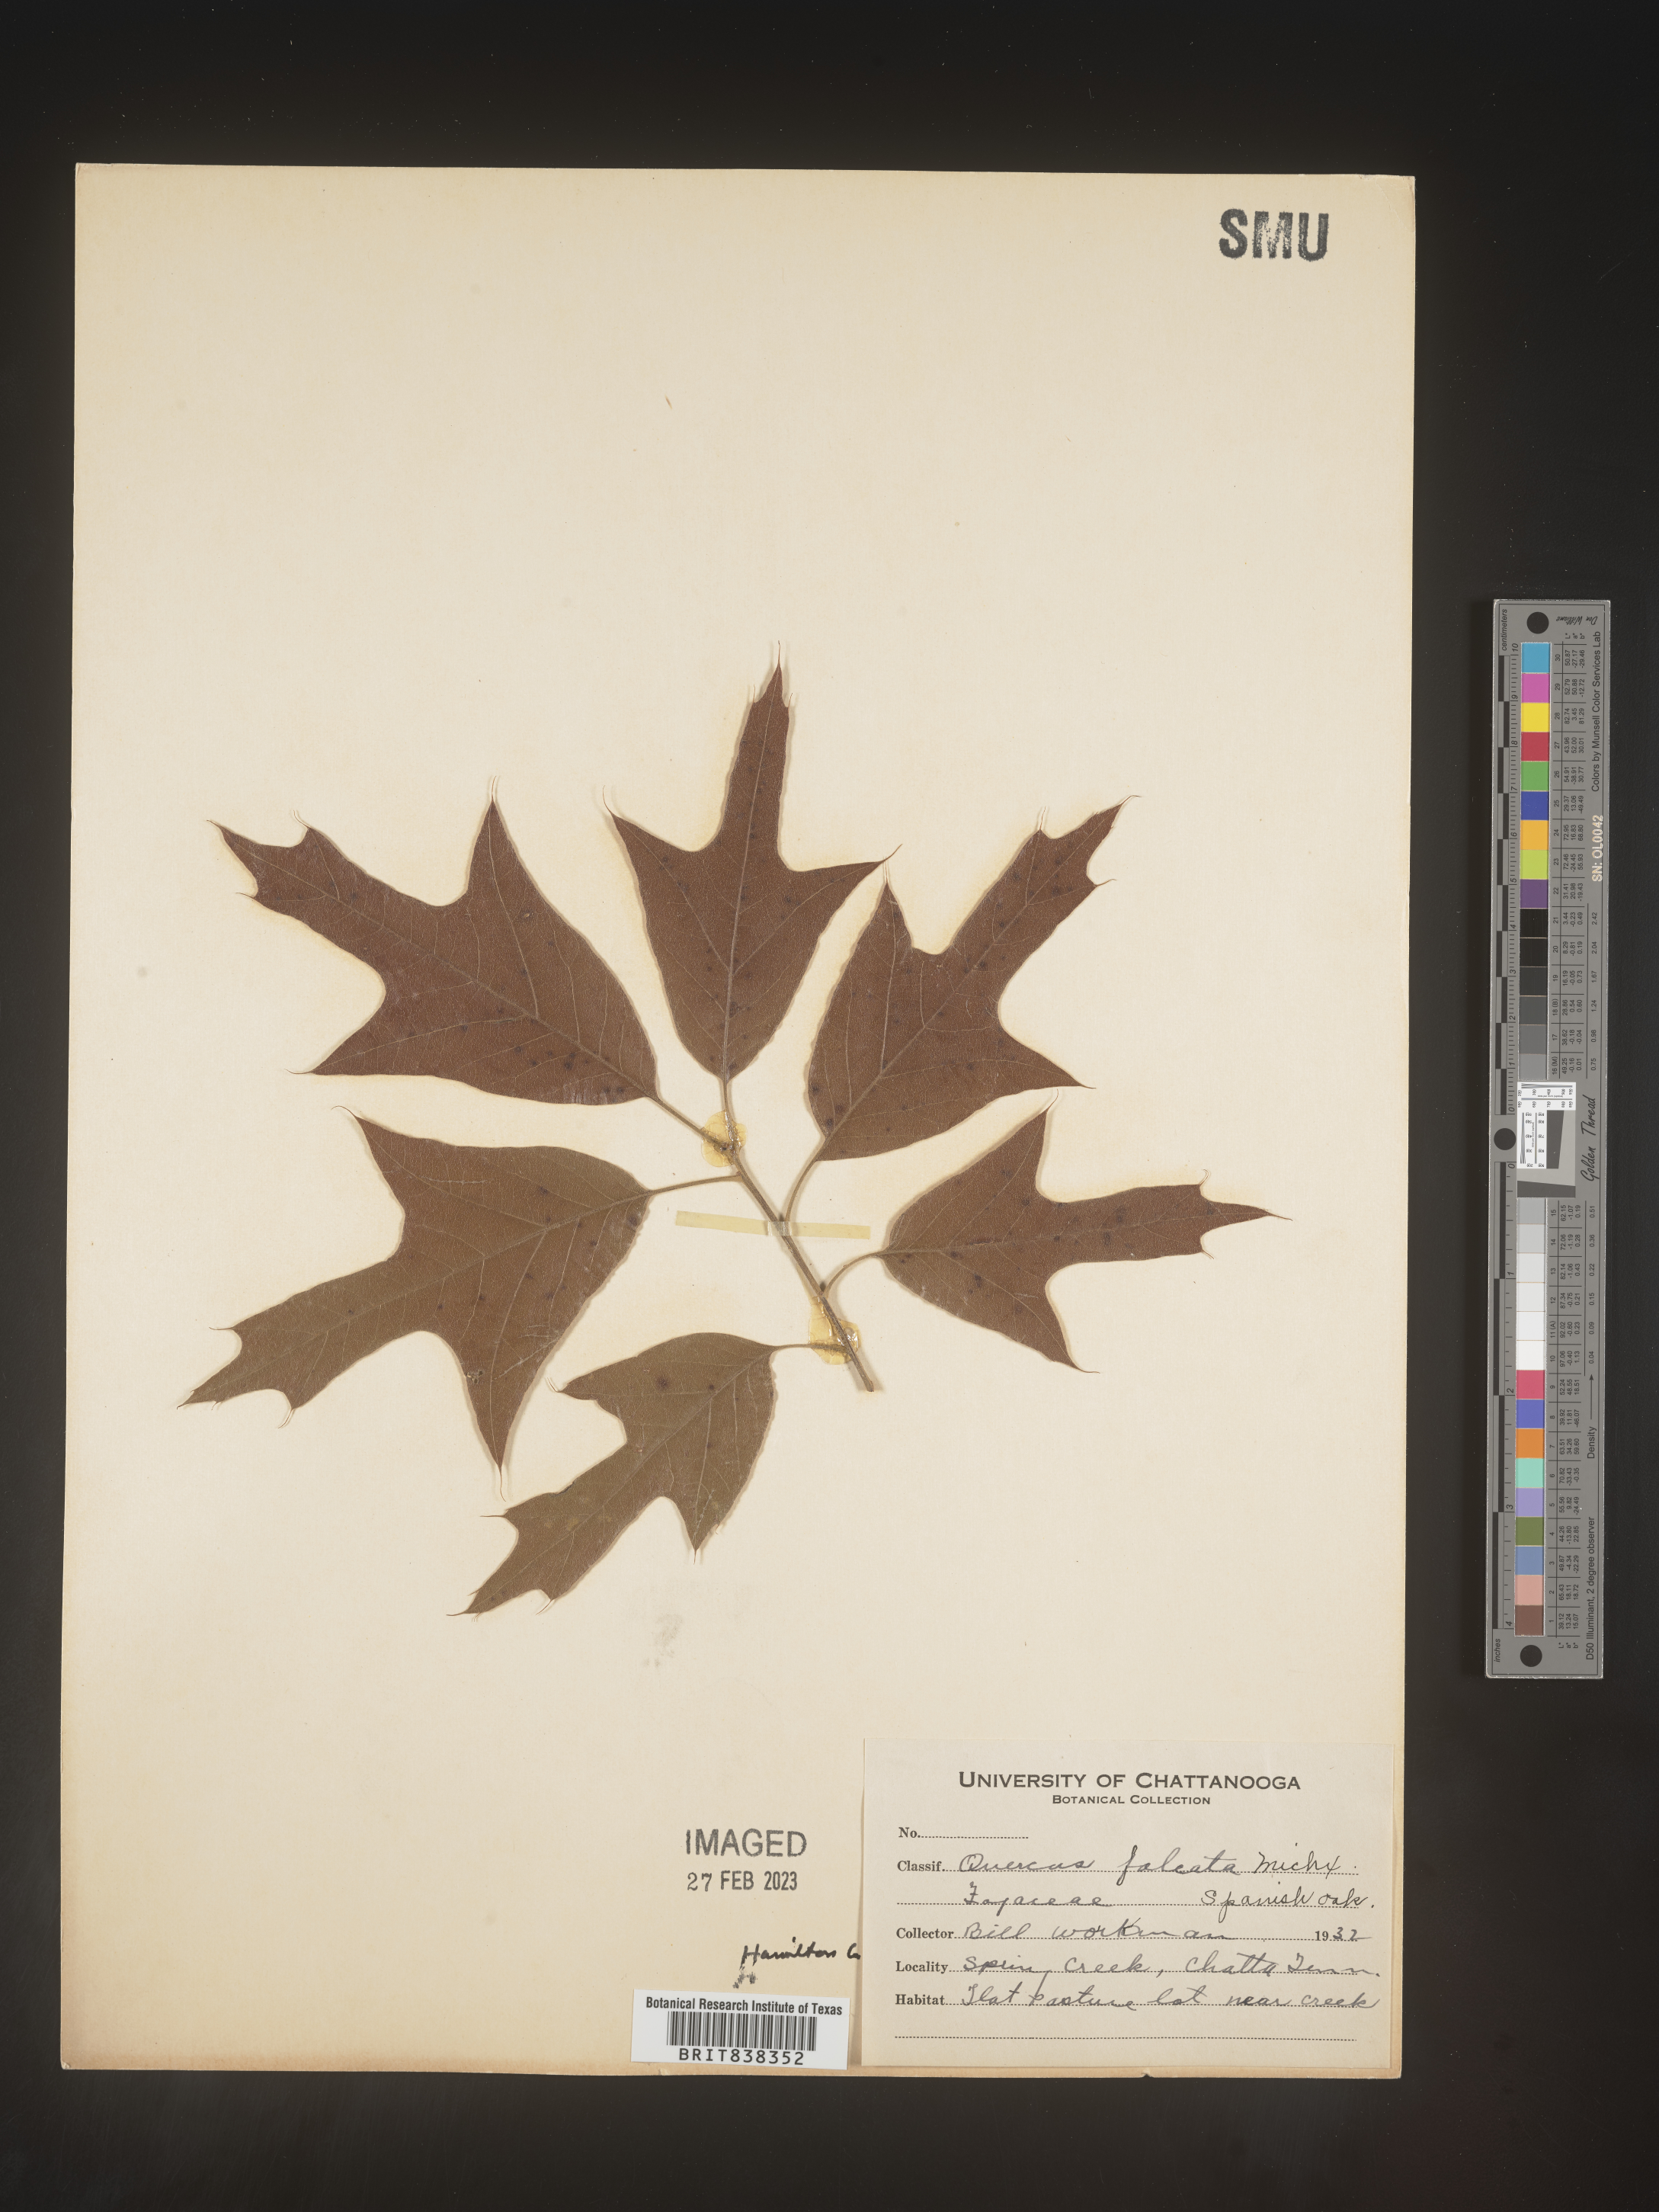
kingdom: Plantae
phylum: Tracheophyta
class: Magnoliopsida
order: Fagales
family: Fagaceae
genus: Quercus
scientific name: Quercus falcata
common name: Southern red oak
